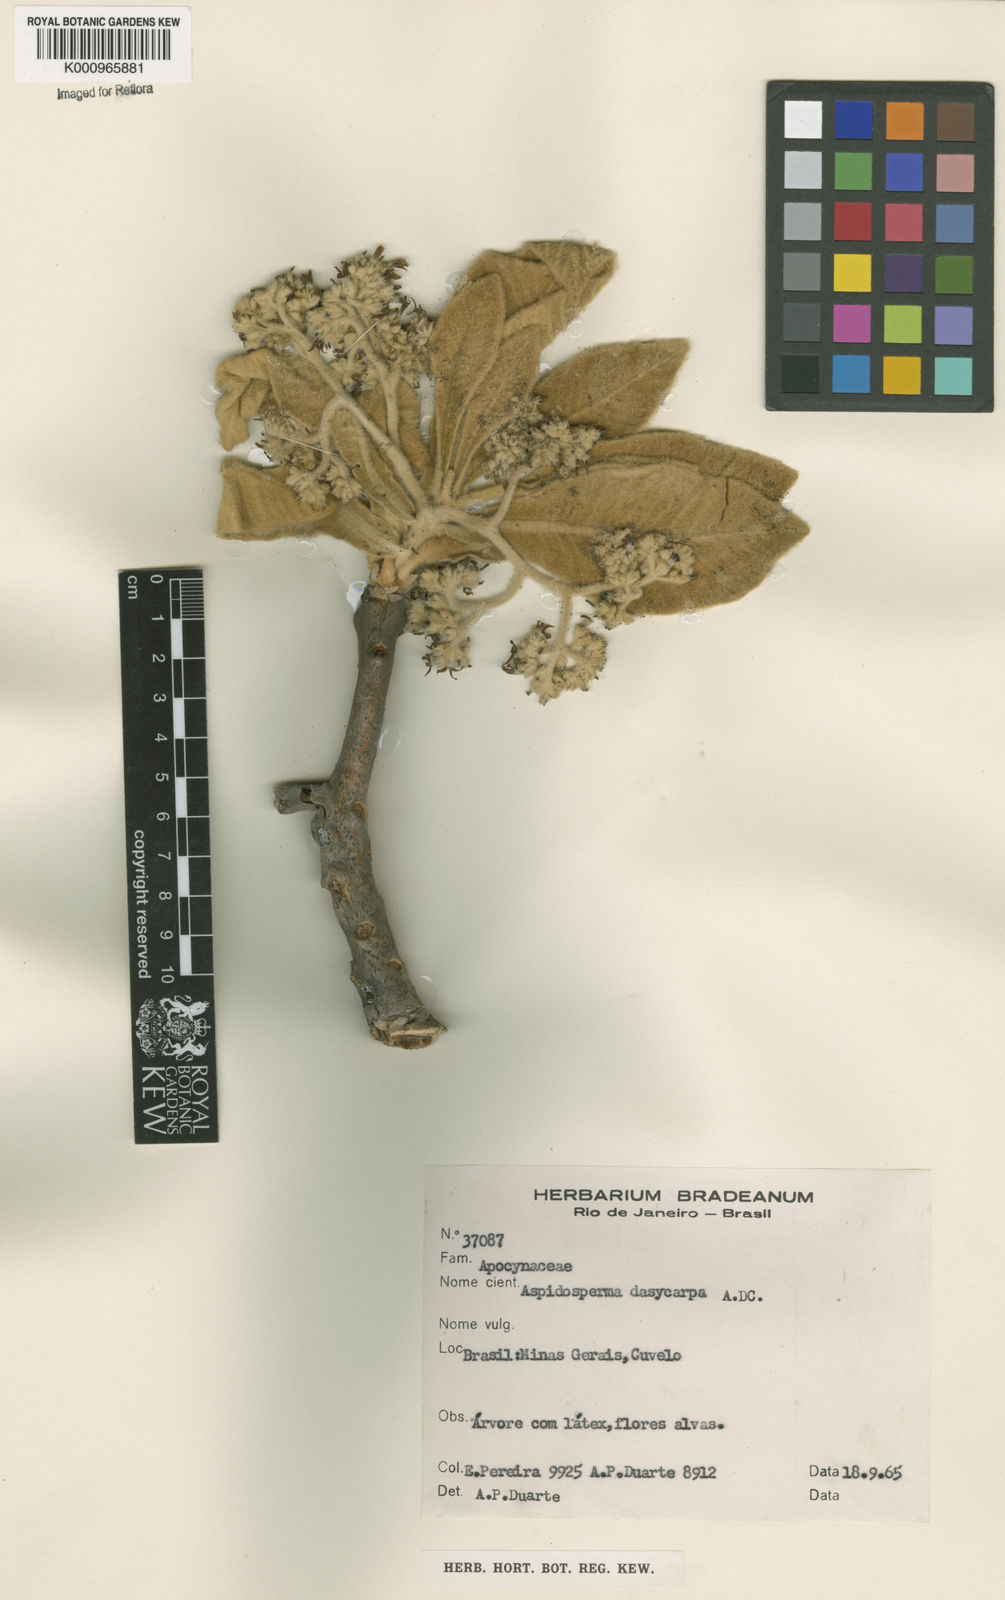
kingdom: Plantae
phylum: Tracheophyta
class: Magnoliopsida
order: Gentianales
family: Apocynaceae
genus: Aspidosperma
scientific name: Aspidosperma tomentosum
